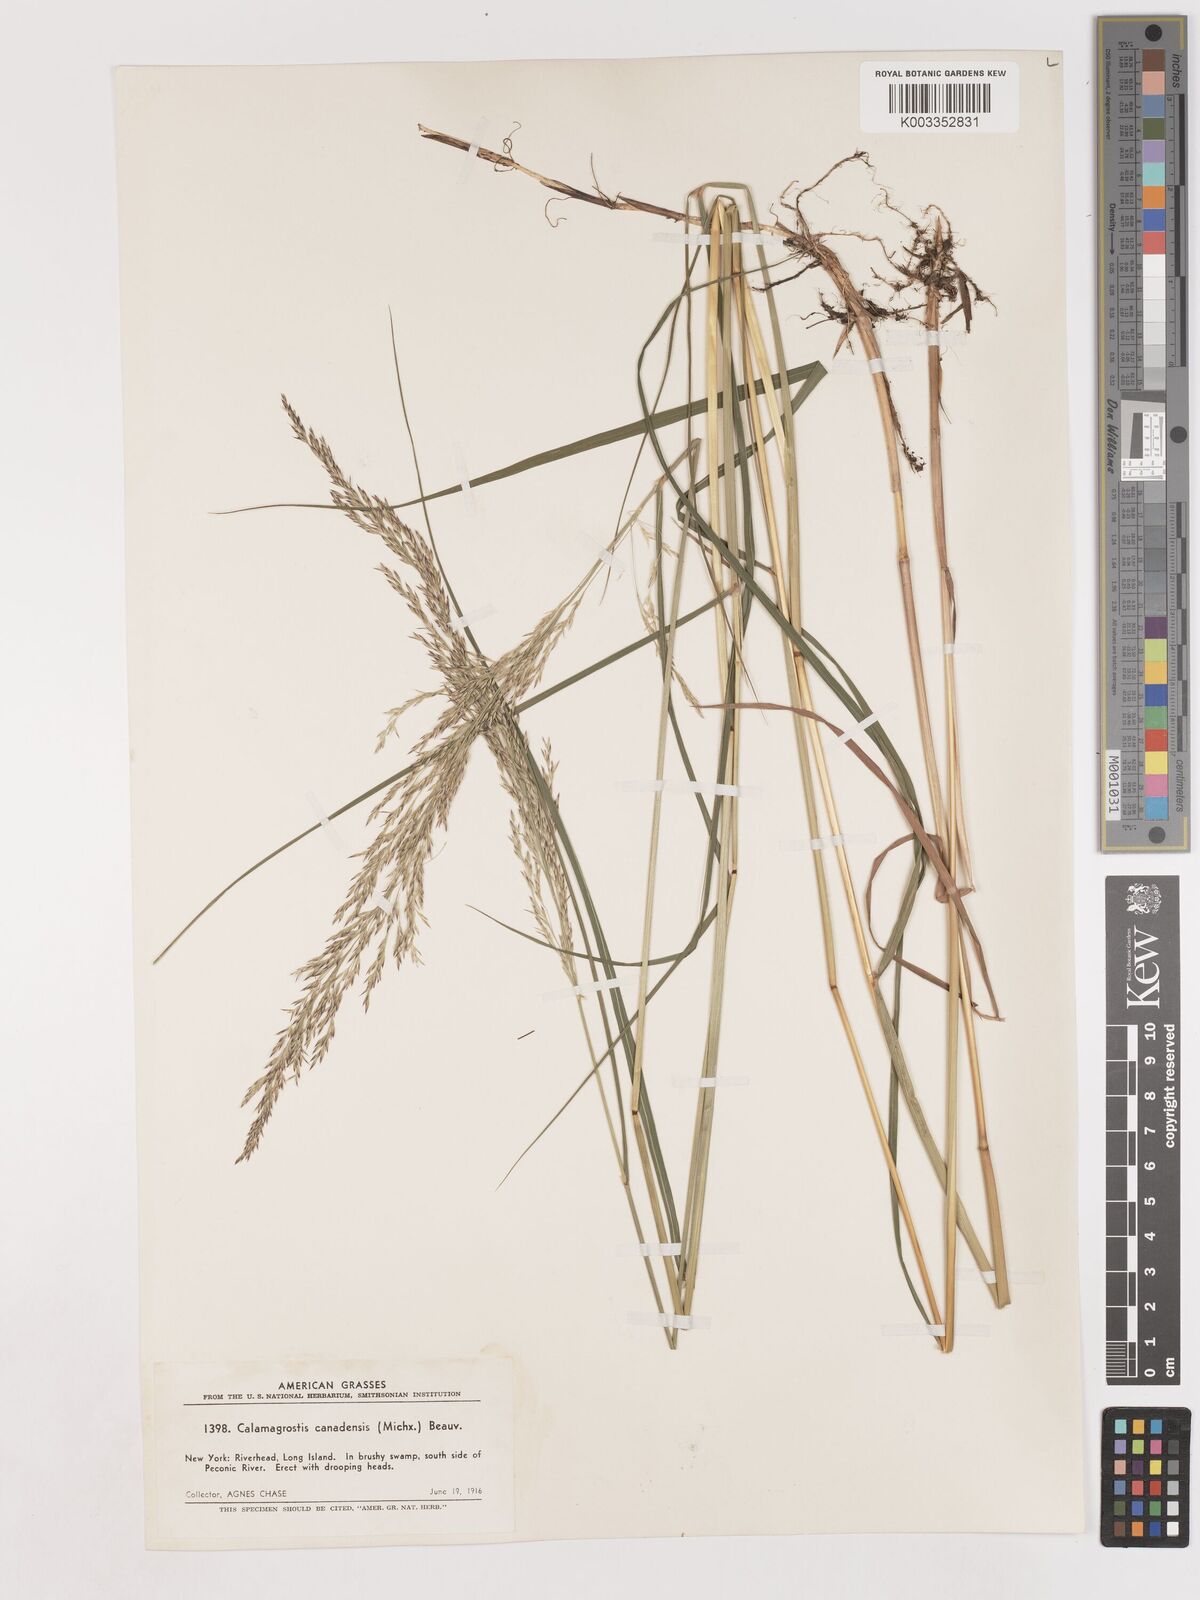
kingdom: Plantae
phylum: Tracheophyta
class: Liliopsida
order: Poales
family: Poaceae
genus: Calamagrostis
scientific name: Calamagrostis canadensis
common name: Canada bluejoint
